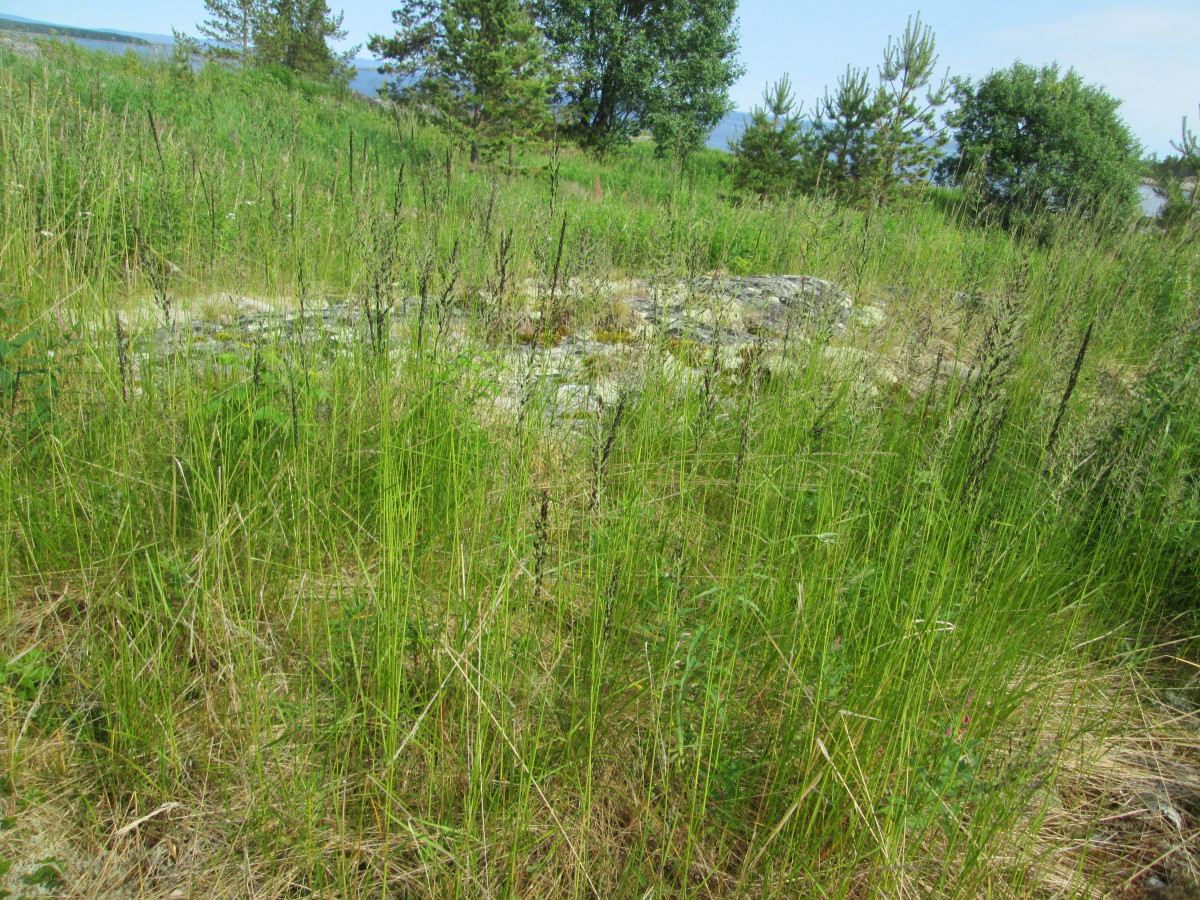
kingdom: Plantae
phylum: Tracheophyta
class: Liliopsida
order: Poales
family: Poaceae
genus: Calamagrostis
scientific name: Calamagrostis
